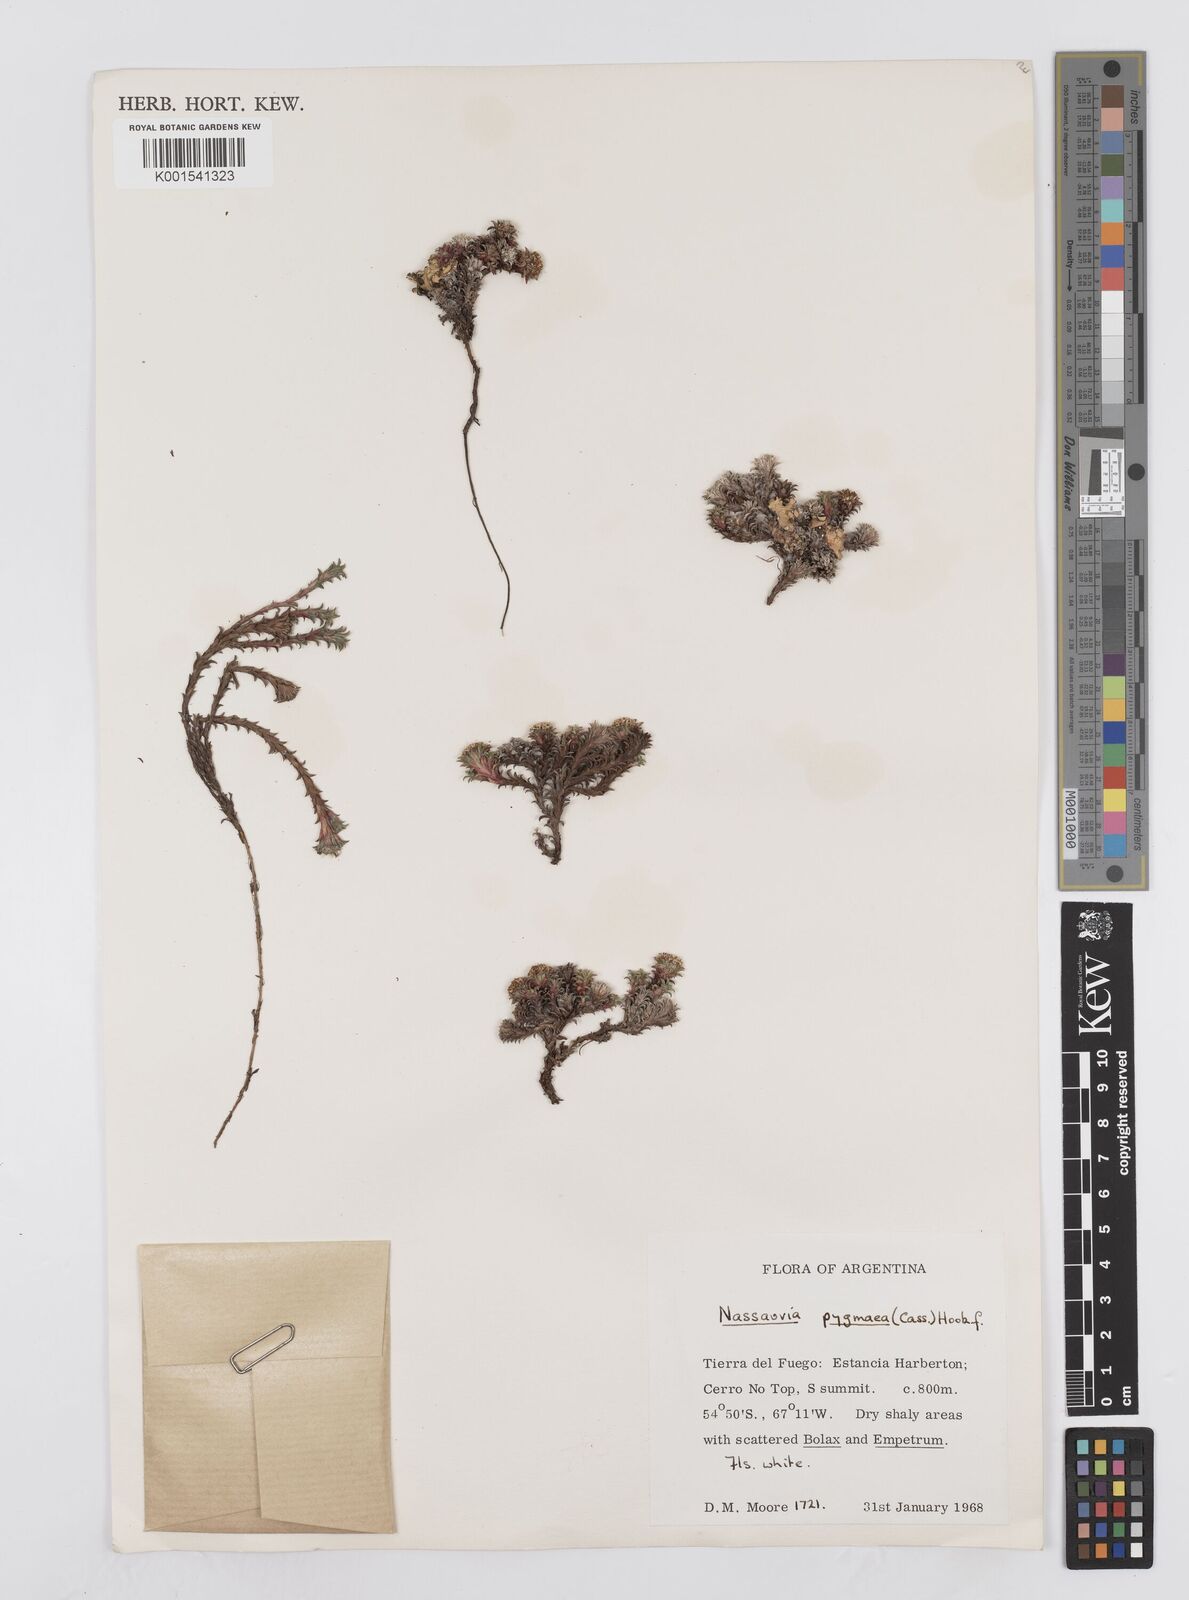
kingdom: Plantae
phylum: Tracheophyta
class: Magnoliopsida
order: Asterales
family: Asteraceae
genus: Nassauvia
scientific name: Nassauvia pygmaea
